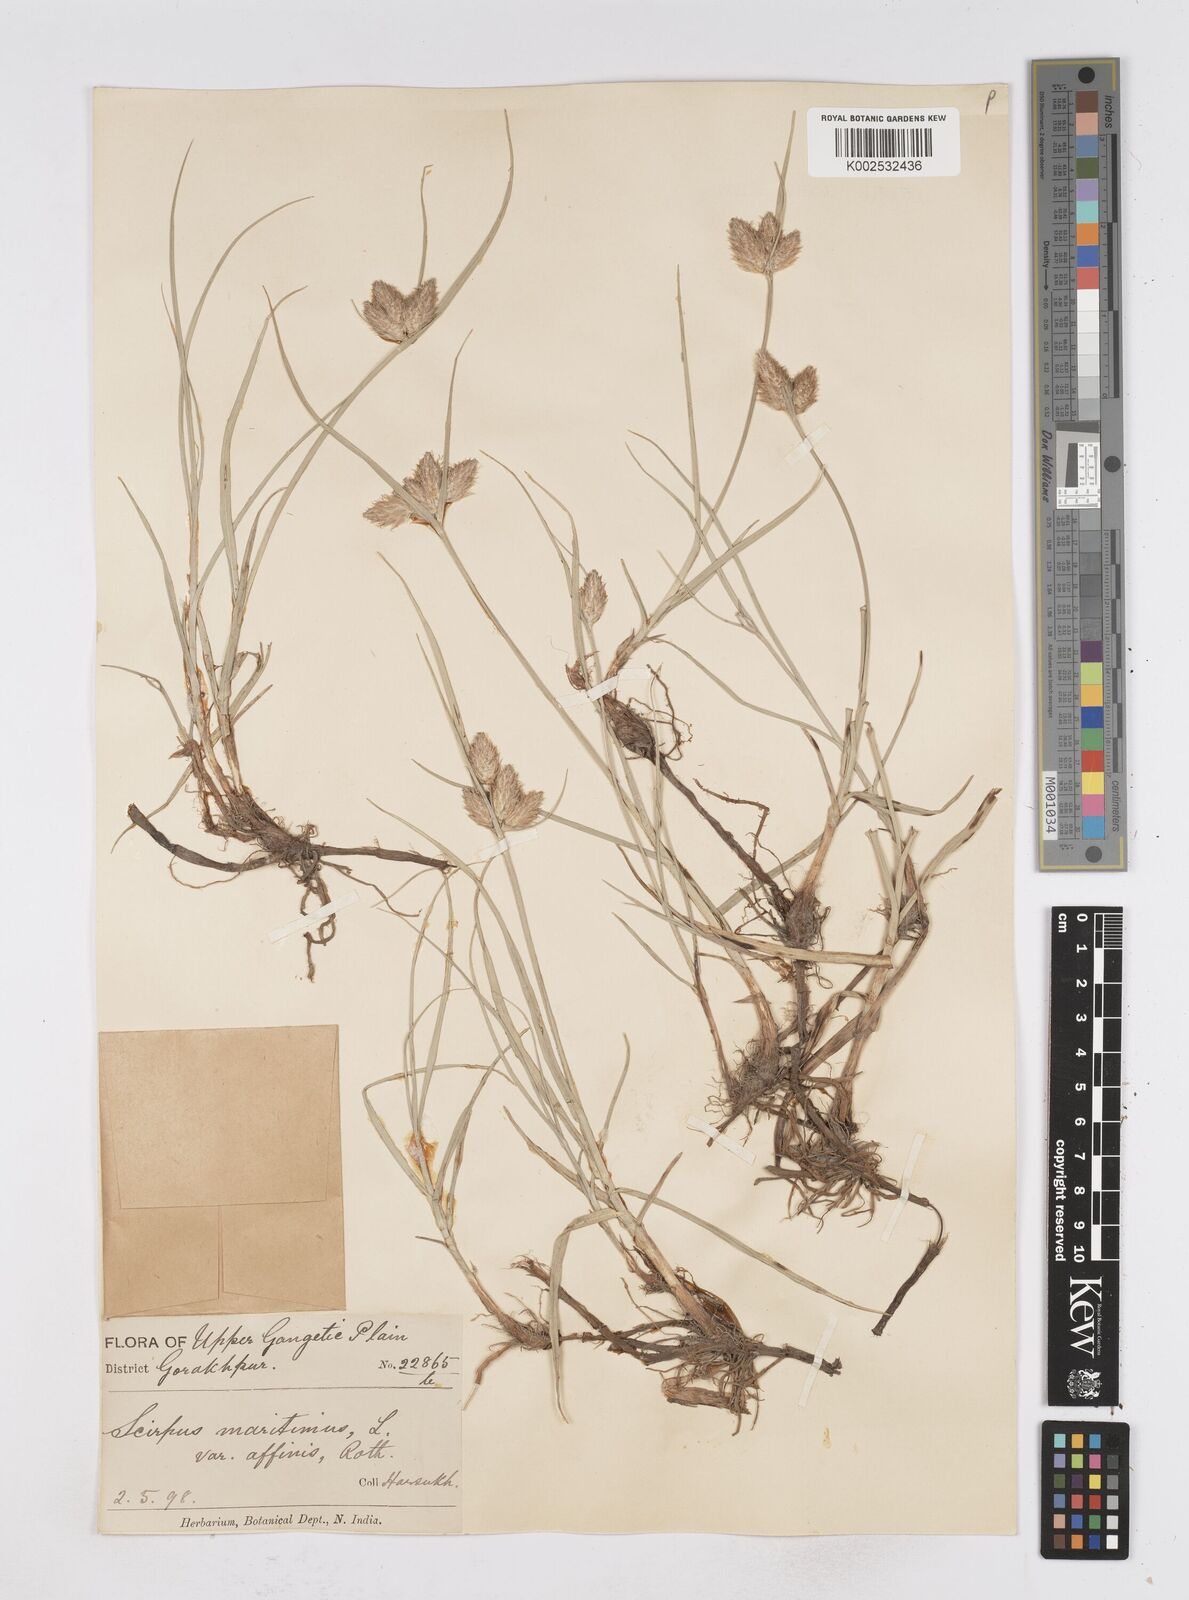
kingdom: Plantae
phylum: Tracheophyta
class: Liliopsida
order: Poales
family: Cyperaceae
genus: Bolboschoenus
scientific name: Bolboschoenus maritimus
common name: Sea club-rush
